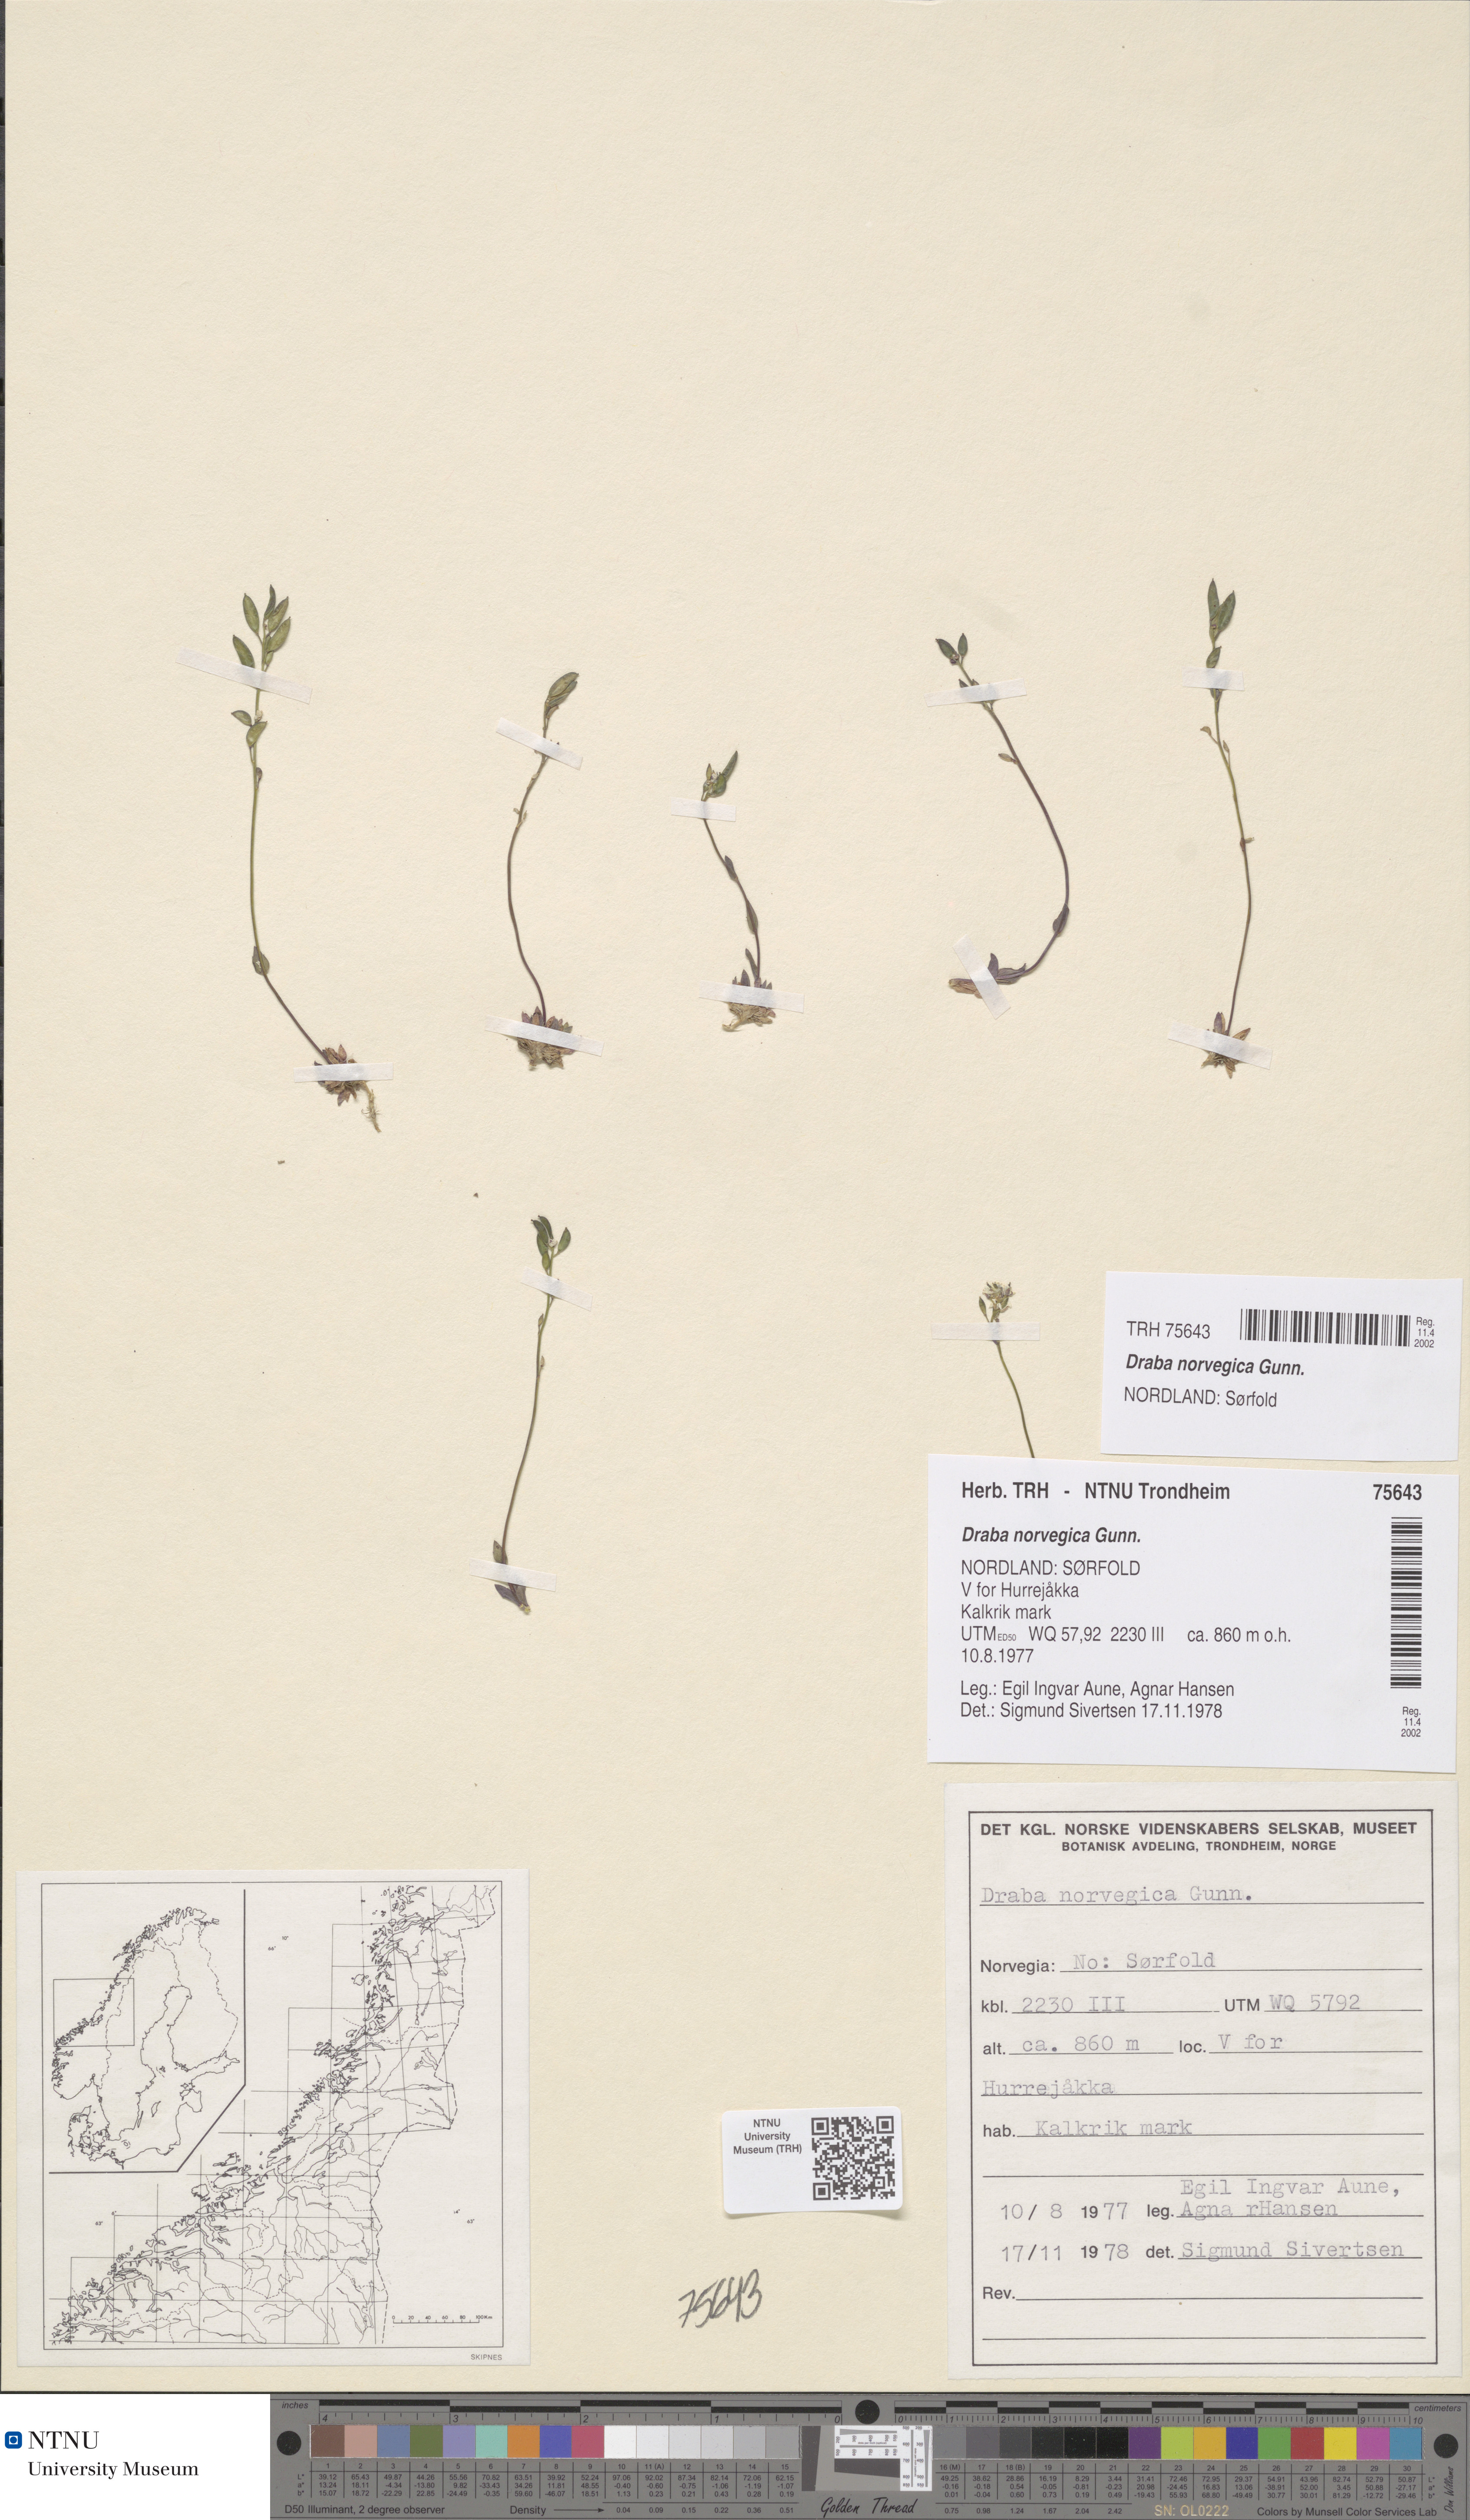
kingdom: Plantae
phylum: Tracheophyta
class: Magnoliopsida
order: Brassicales
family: Brassicaceae
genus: Draba
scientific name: Draba norvegica
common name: Rock whitlowgrass
